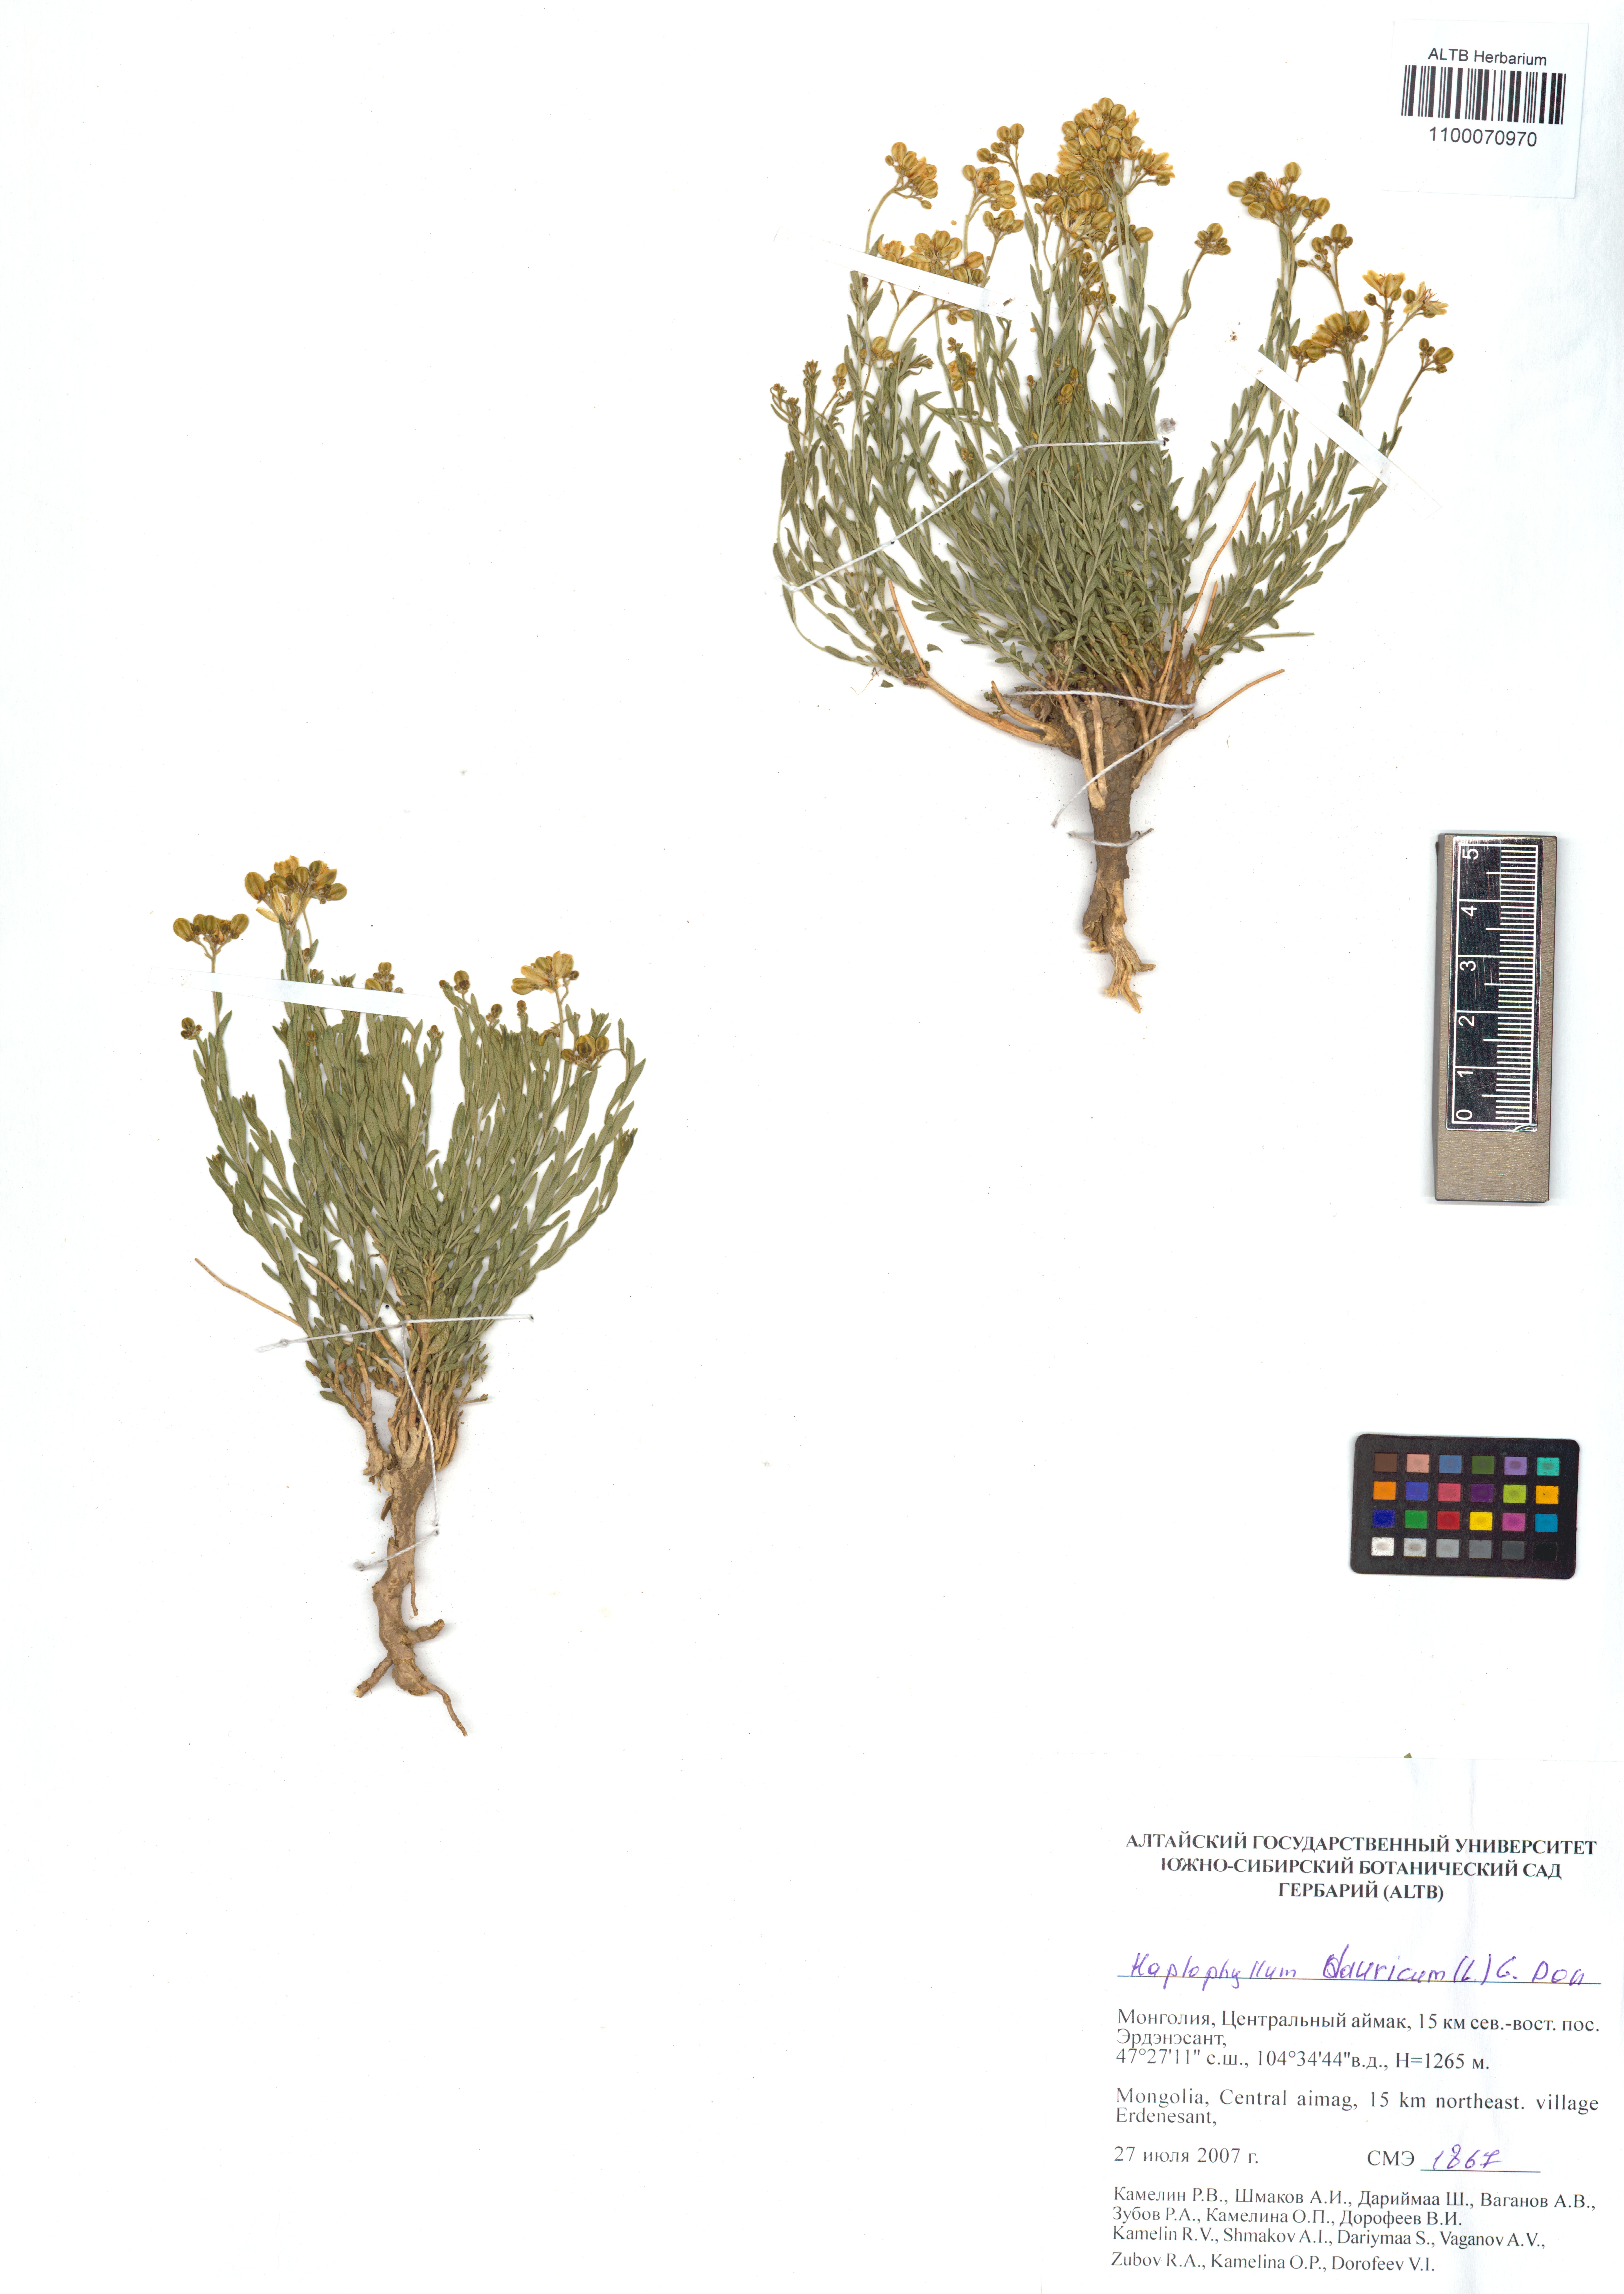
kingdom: Plantae
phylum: Tracheophyta
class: Magnoliopsida
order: Sapindales
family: Rutaceae
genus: Haplophyllum
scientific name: Haplophyllum dauricum
